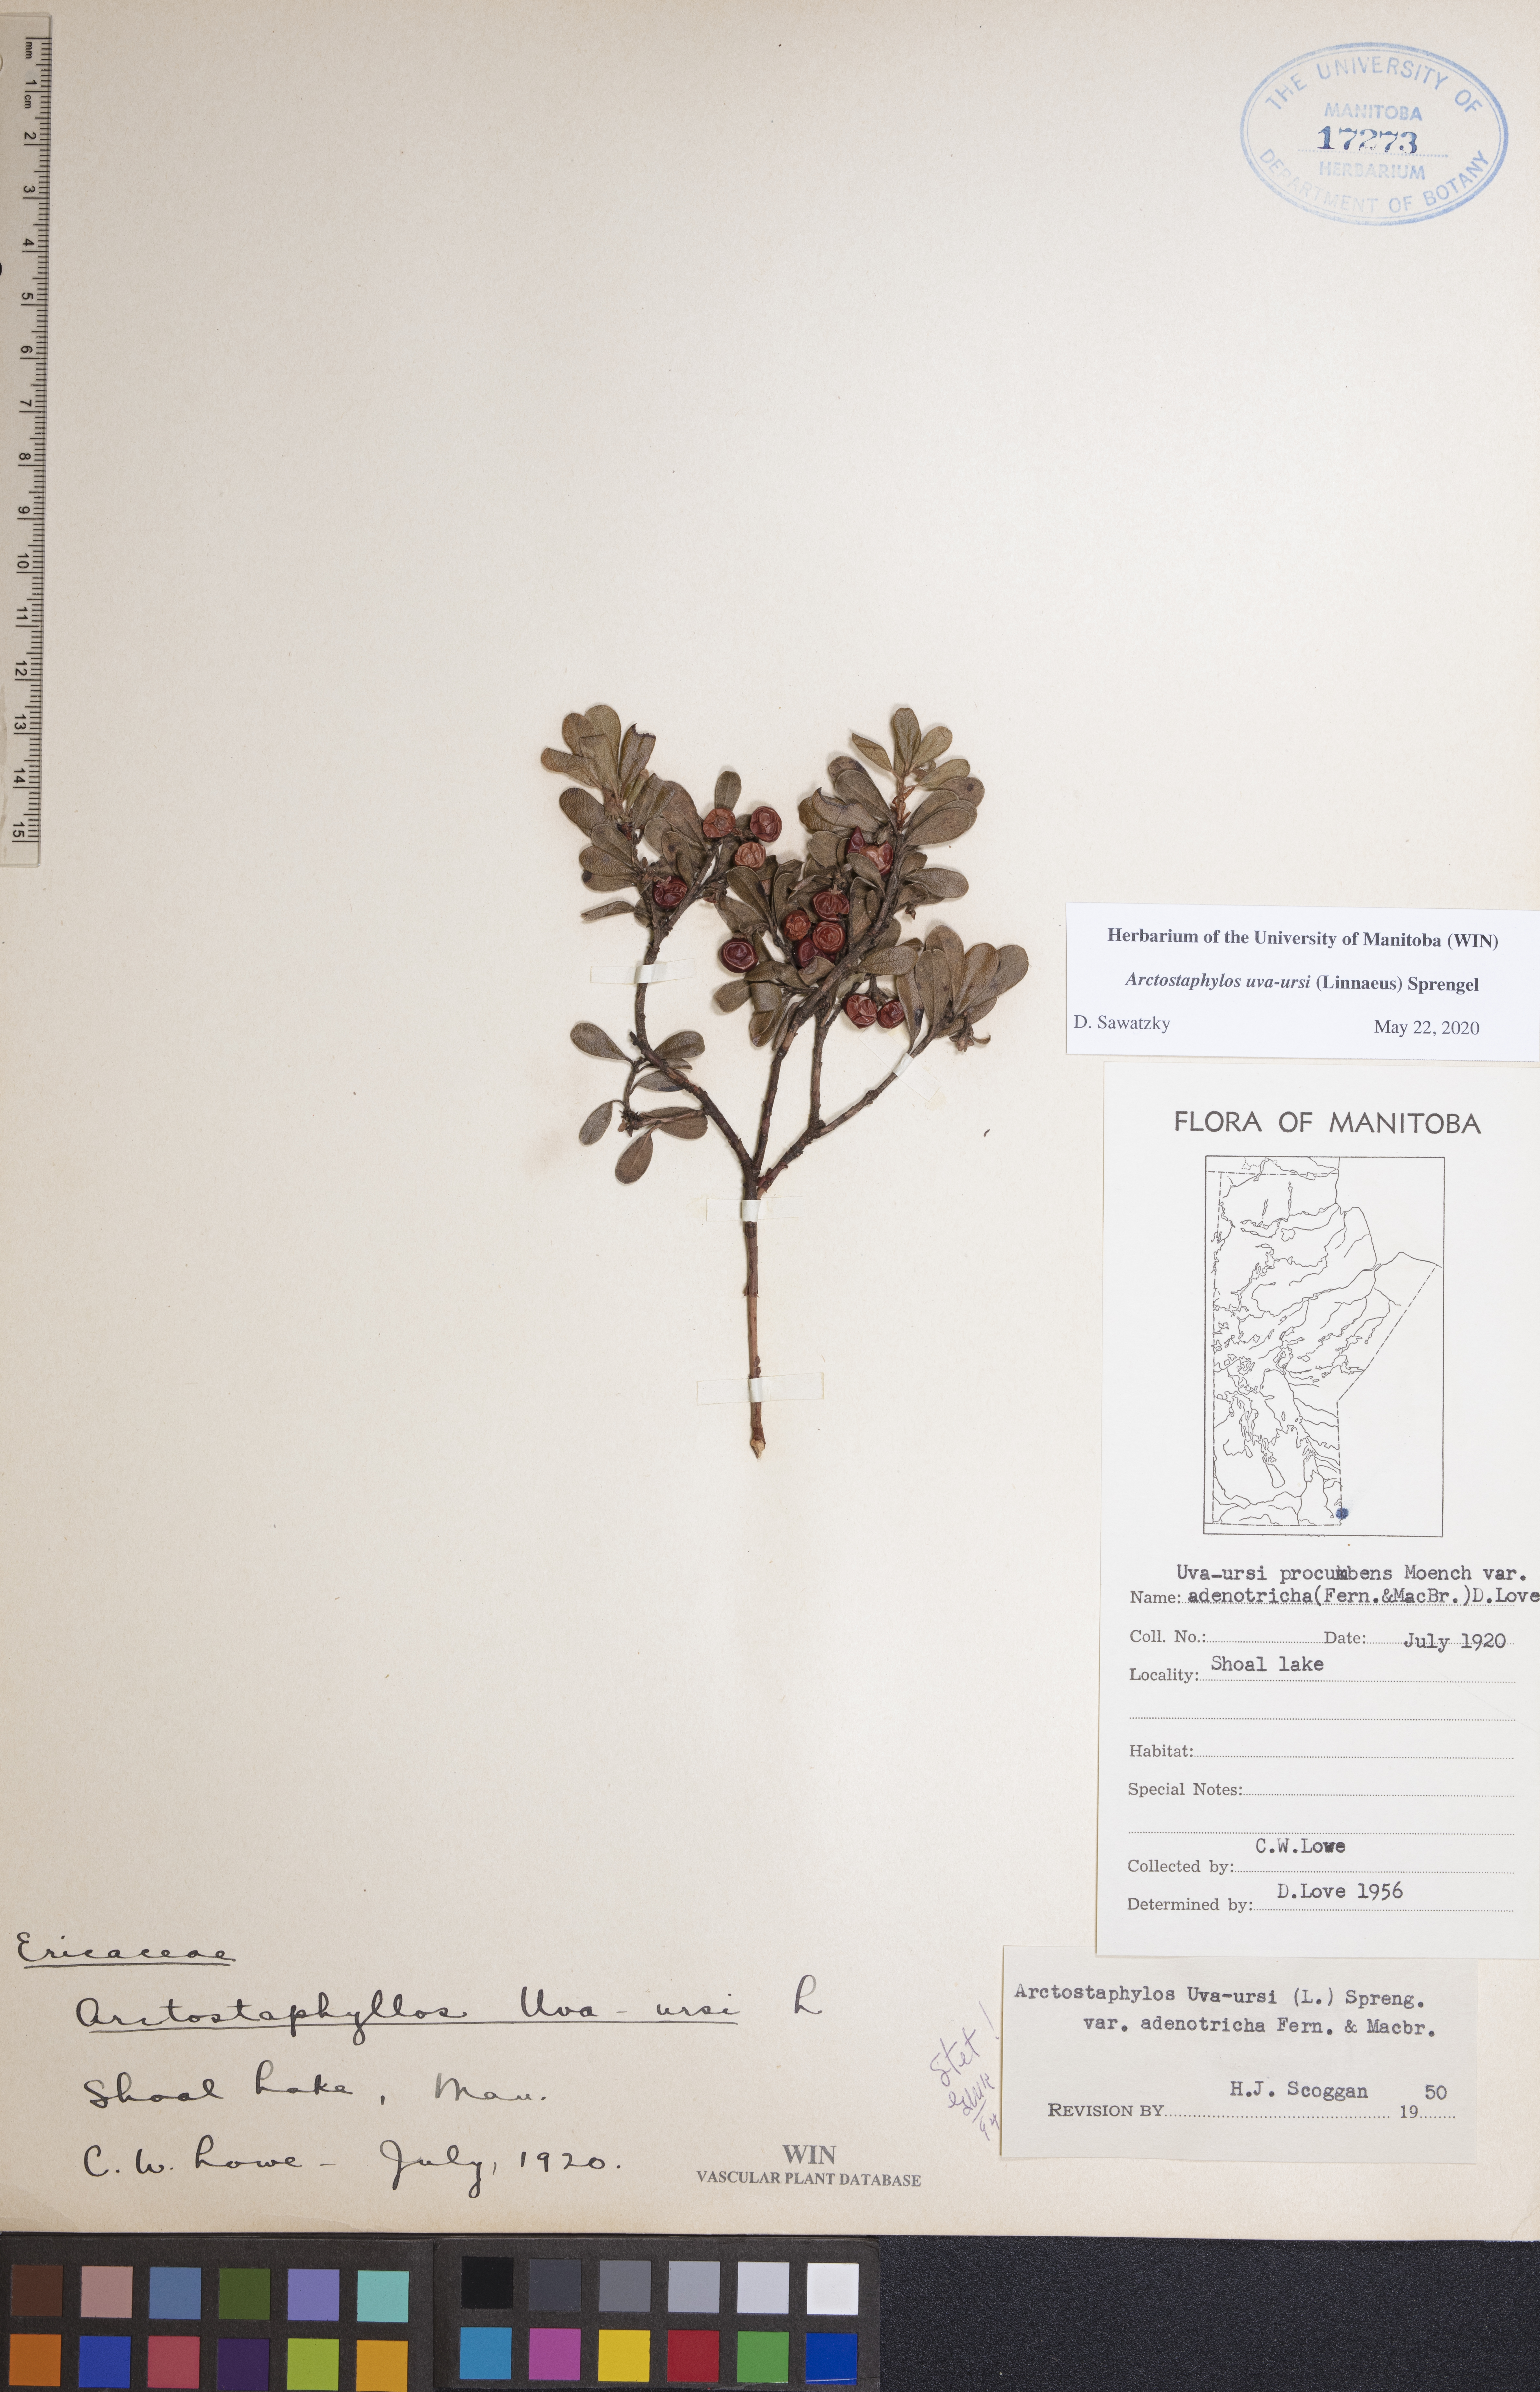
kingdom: Plantae
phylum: Tracheophyta
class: Magnoliopsida
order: Ericales
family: Ericaceae
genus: Arctostaphylos
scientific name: Arctostaphylos uva-ursi
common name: Bearberry
